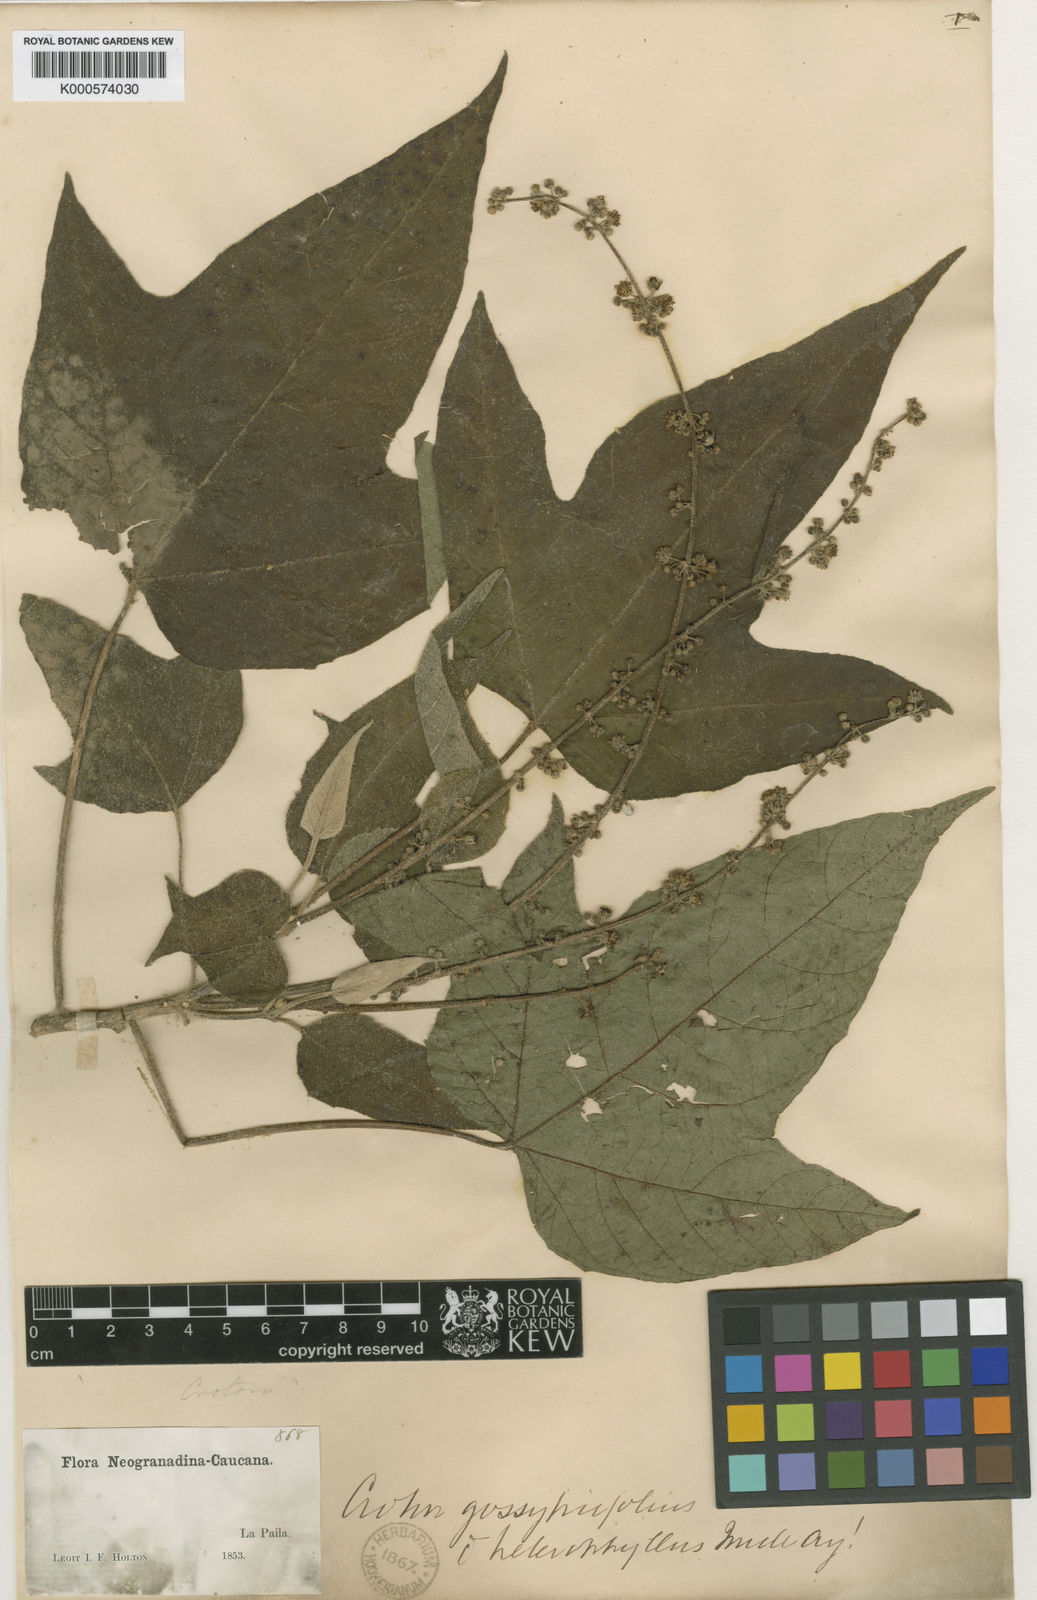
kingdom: Plantae
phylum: Tracheophyta
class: Magnoliopsida
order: Malpighiales
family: Euphorbiaceae
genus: Croton
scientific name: Croton gossypiifolius
